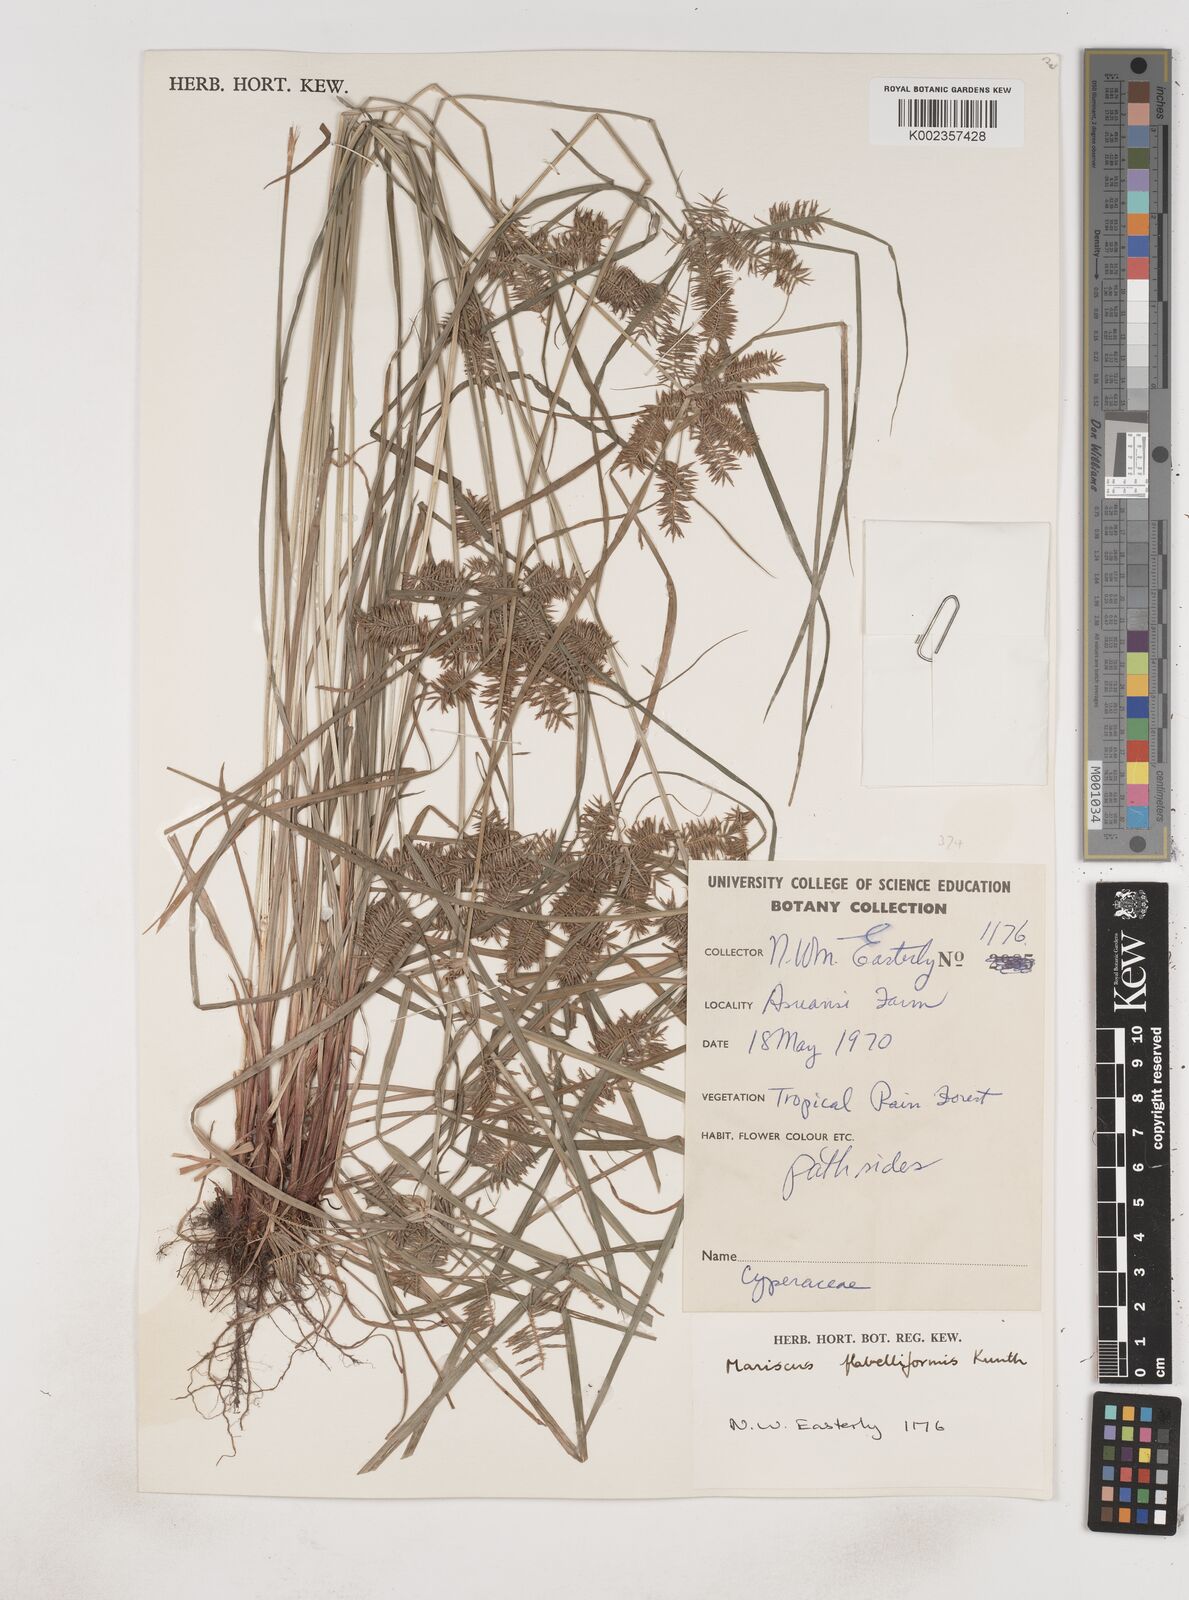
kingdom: Plantae
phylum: Tracheophyta
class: Liliopsida
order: Poales
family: Cyperaceae
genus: Cyperus
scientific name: Cyperus tenuis
